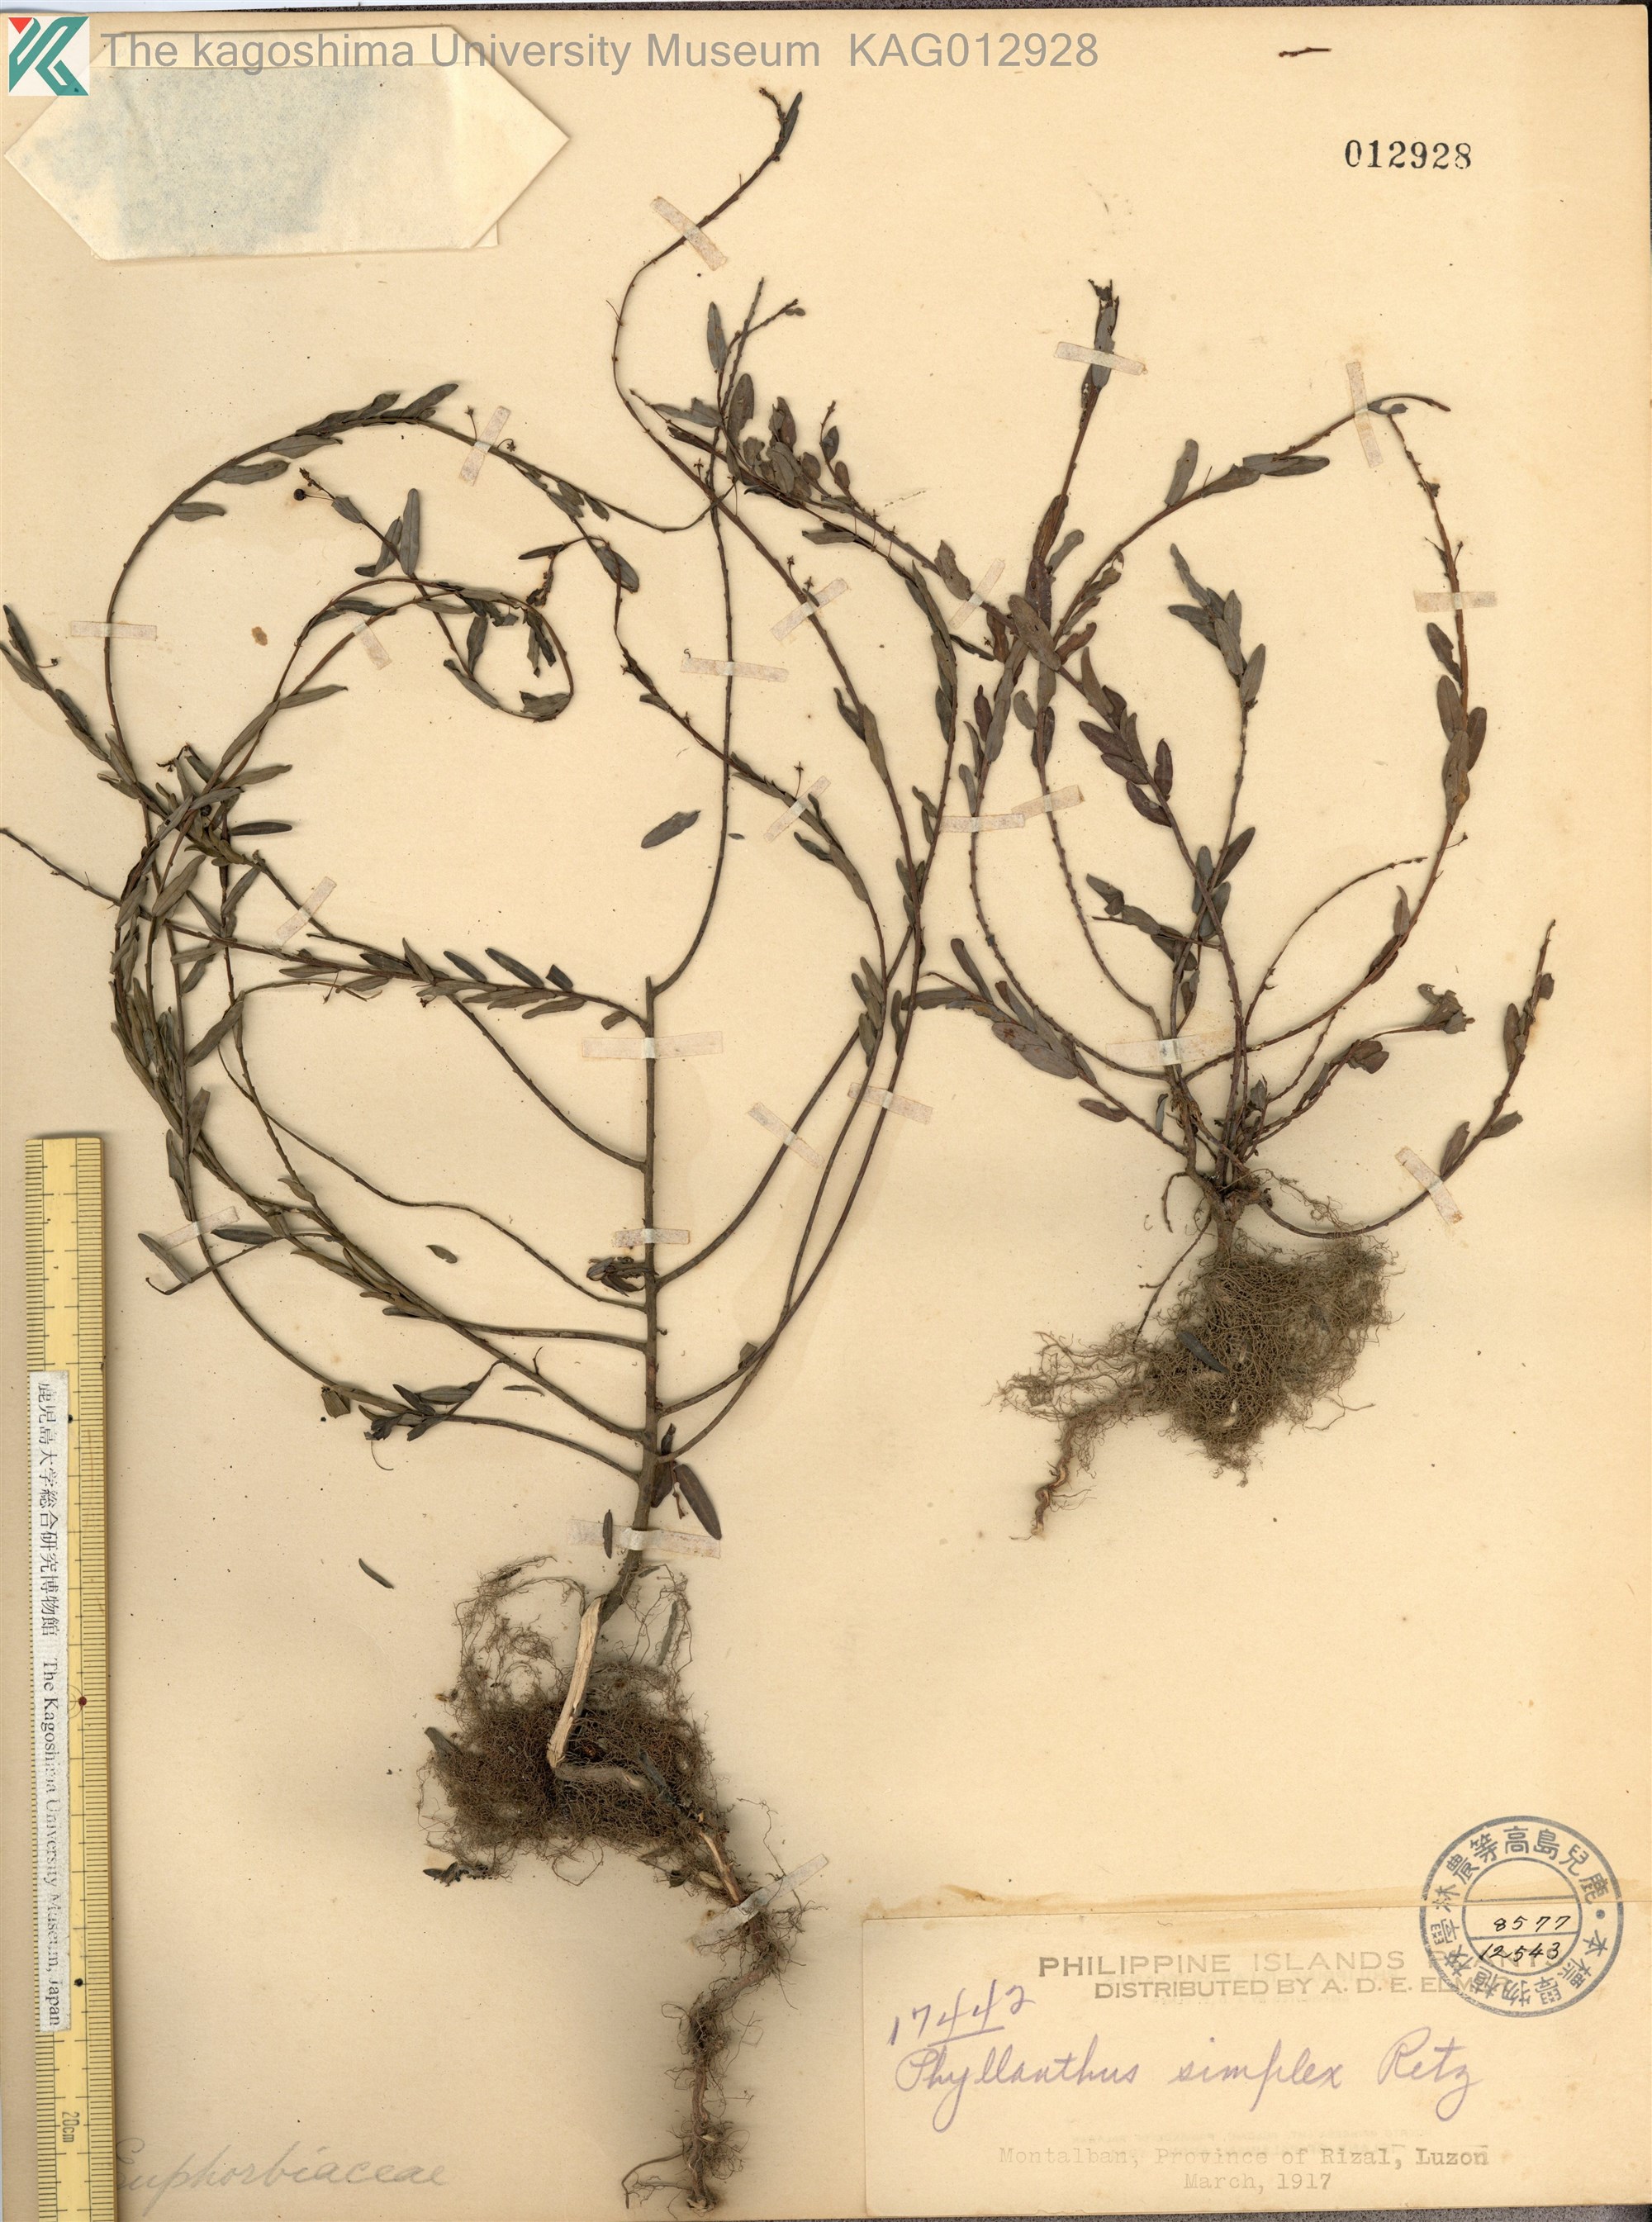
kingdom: Plantae
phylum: Tracheophyta
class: Magnoliopsida
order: Malpighiales
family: Phyllanthaceae
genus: Phyllanthus
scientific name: Phyllanthus virgatus
